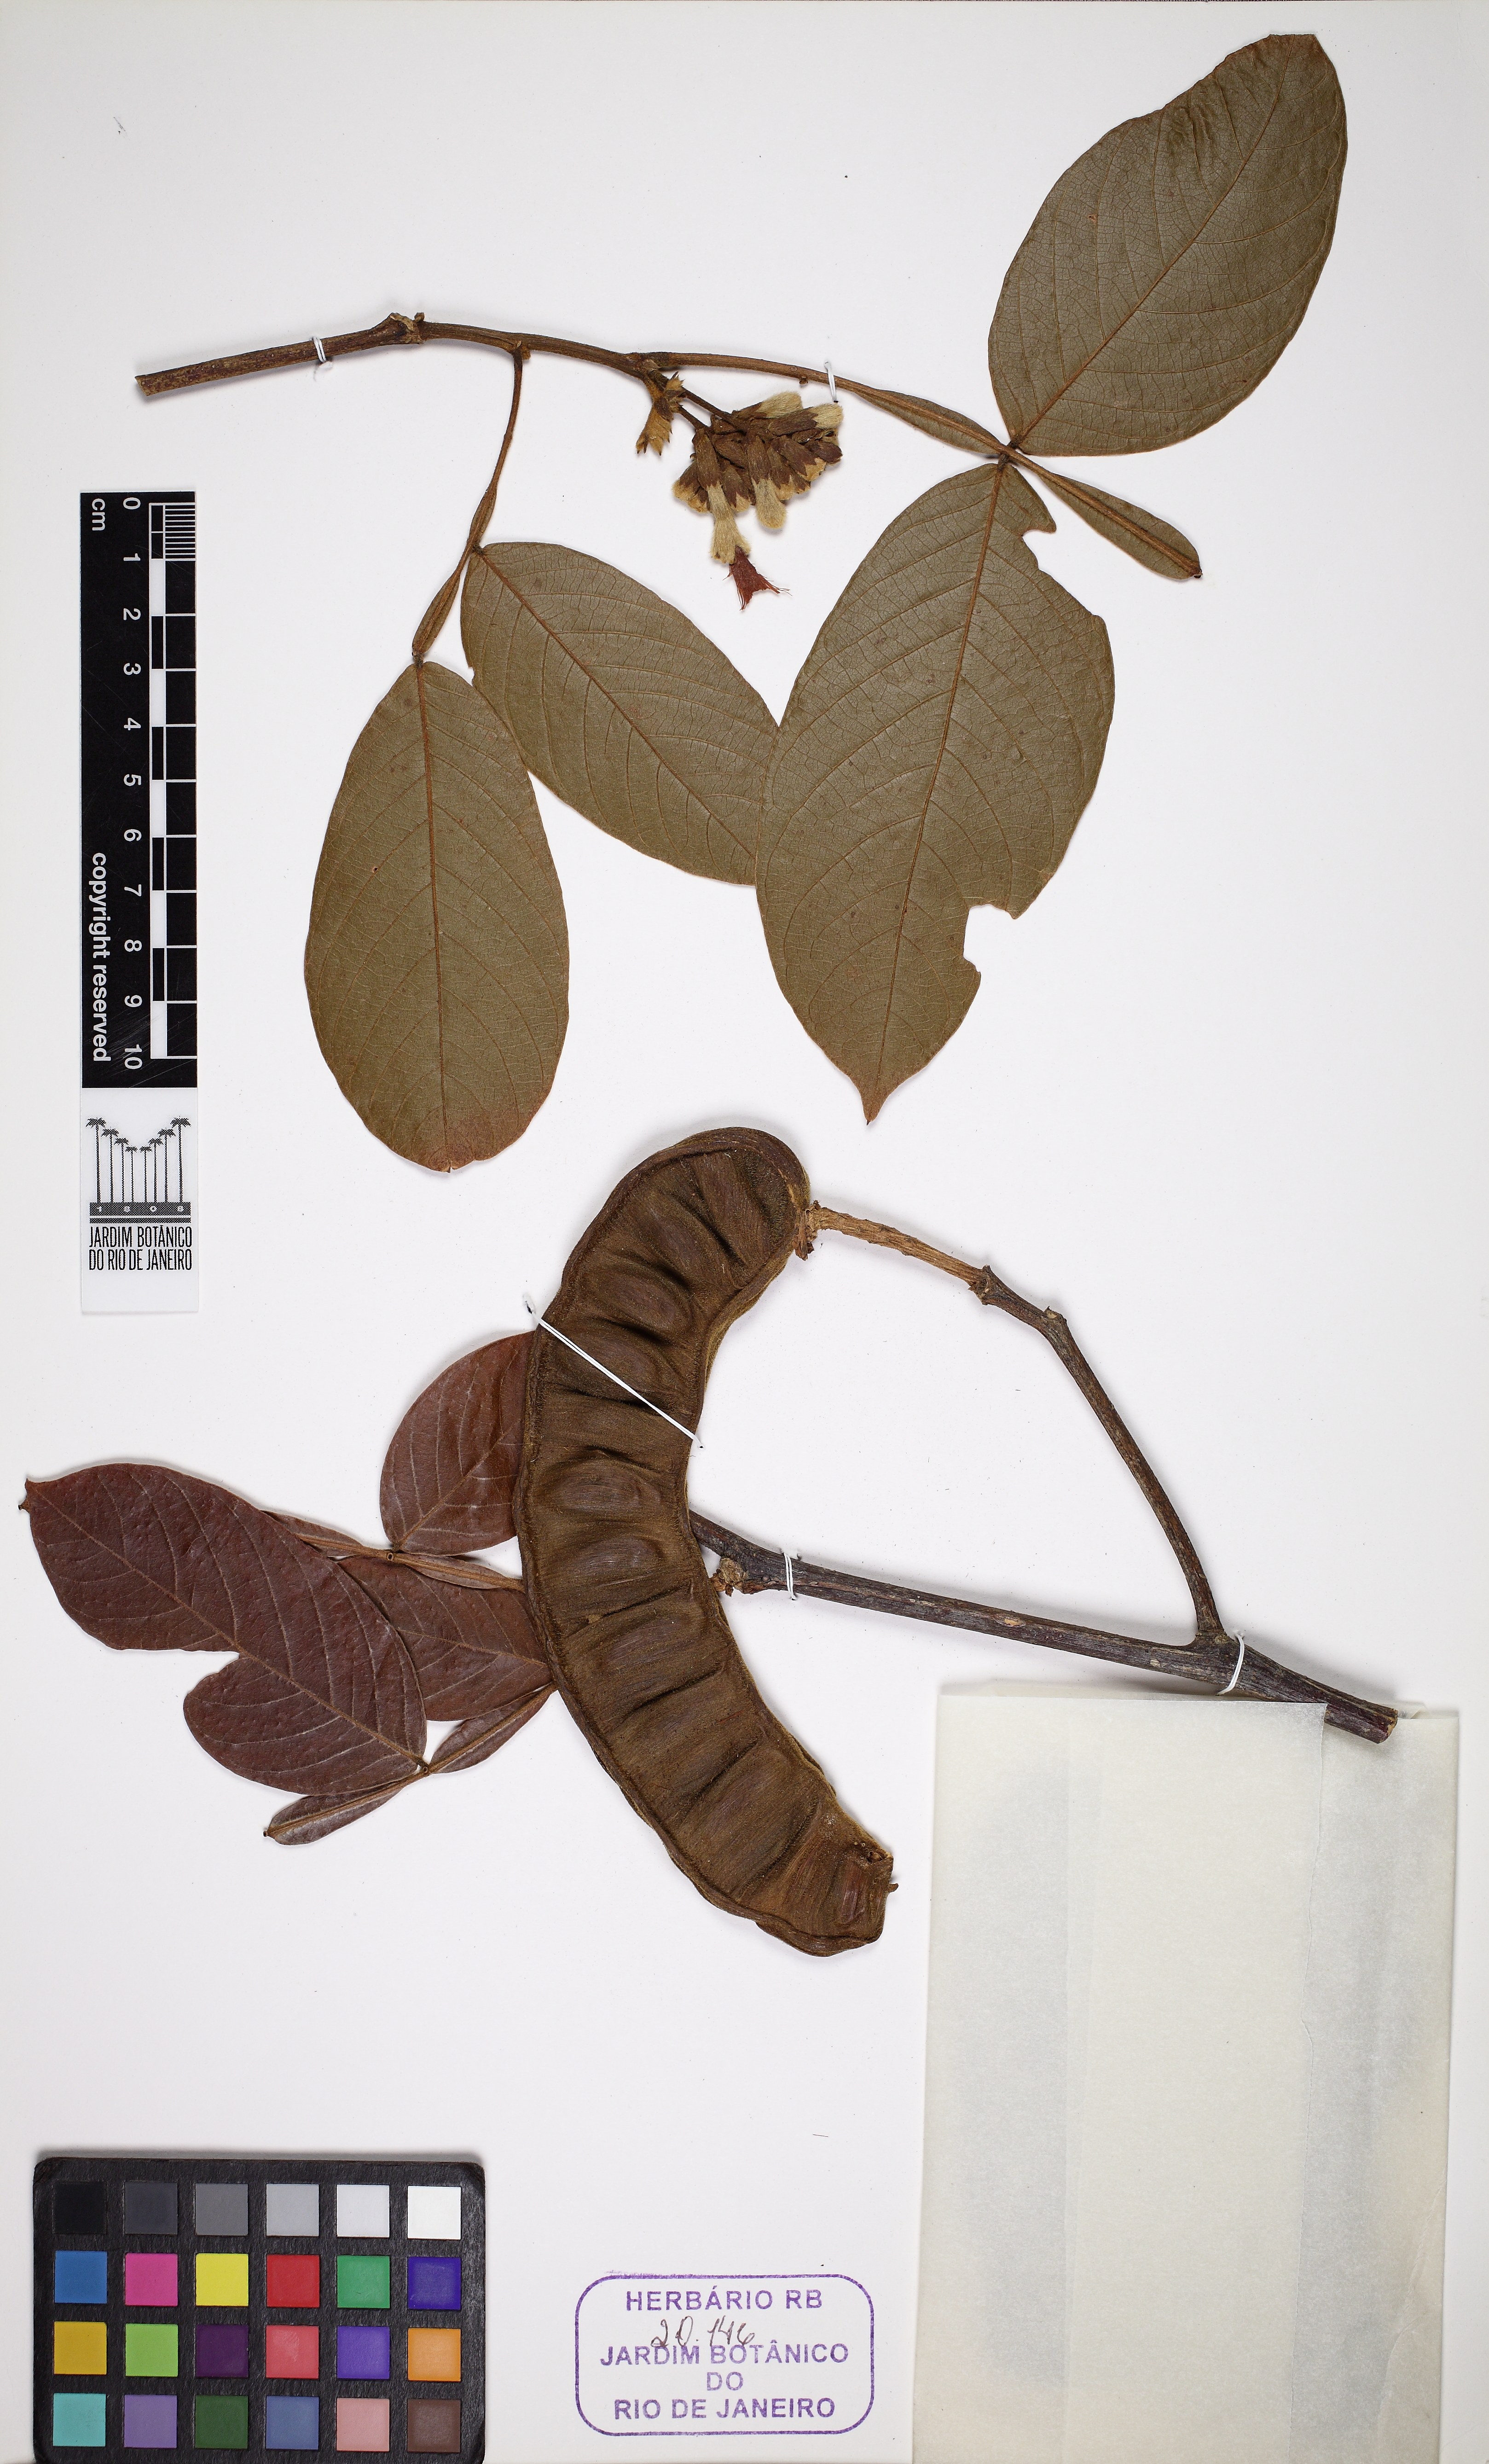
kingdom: Plantae
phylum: Tracheophyta
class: Magnoliopsida
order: Fabales
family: Fabaceae
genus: Inga
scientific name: Inga thibaudiana
